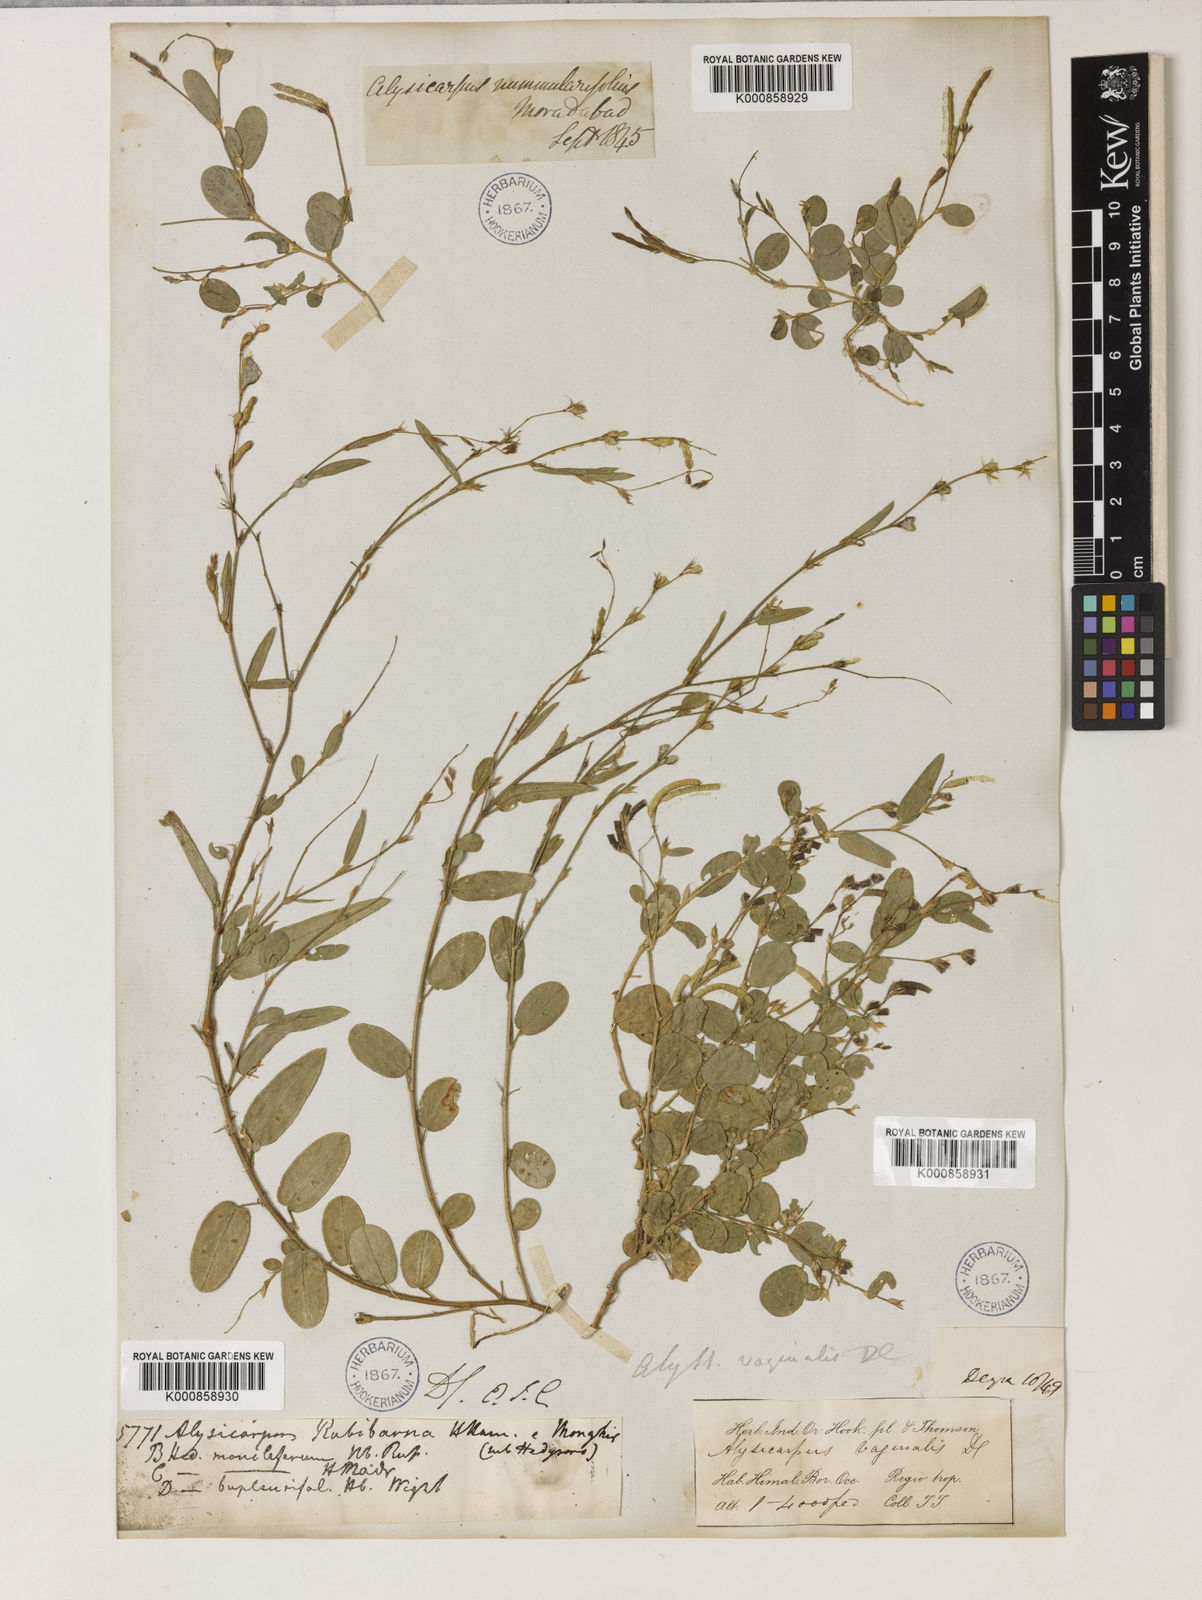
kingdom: Plantae
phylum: Tracheophyta
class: Magnoliopsida
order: Fabales
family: Fabaceae
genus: Alysicarpus
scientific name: Alysicarpus vaginalis
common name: White moneywort
